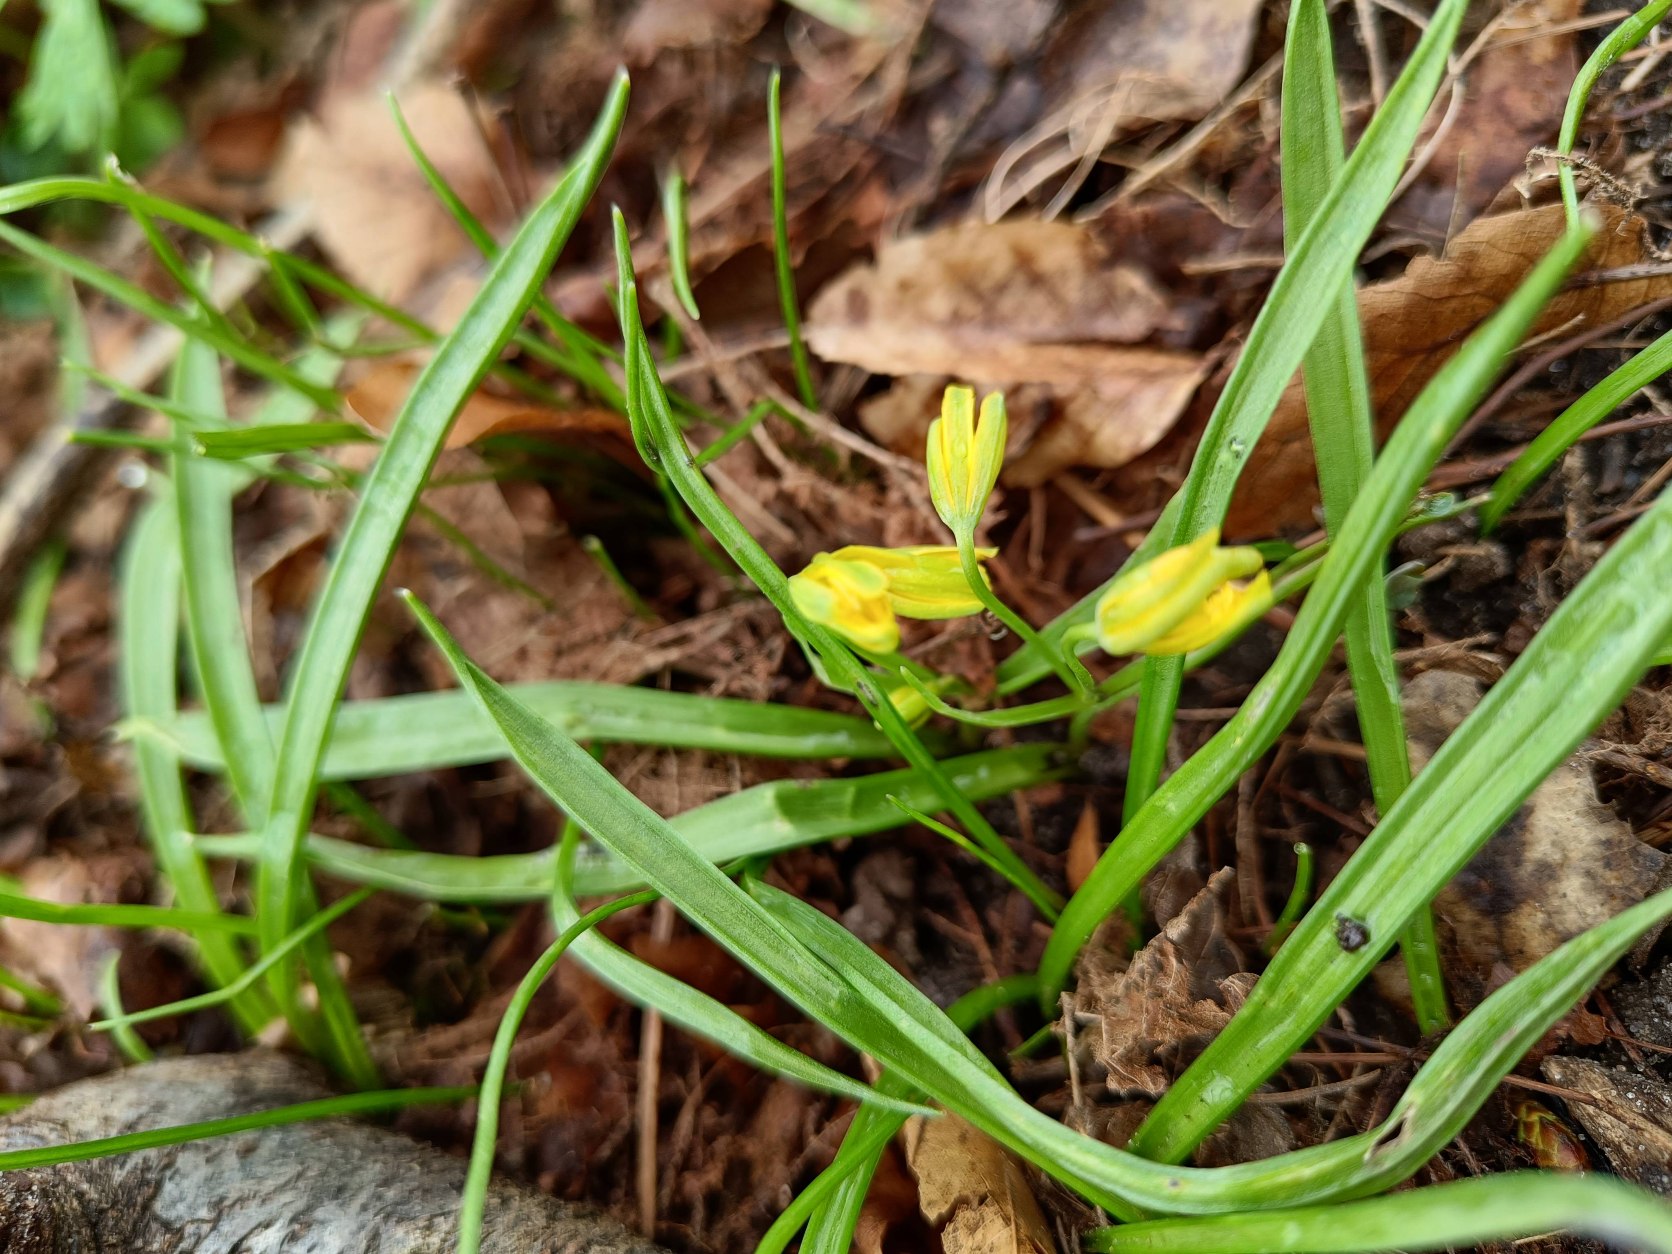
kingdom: Plantae
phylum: Tracheophyta
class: Liliopsida
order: Liliales
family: Liliaceae
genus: Gagea
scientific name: Gagea lutea
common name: Almindelig guldstjerne
